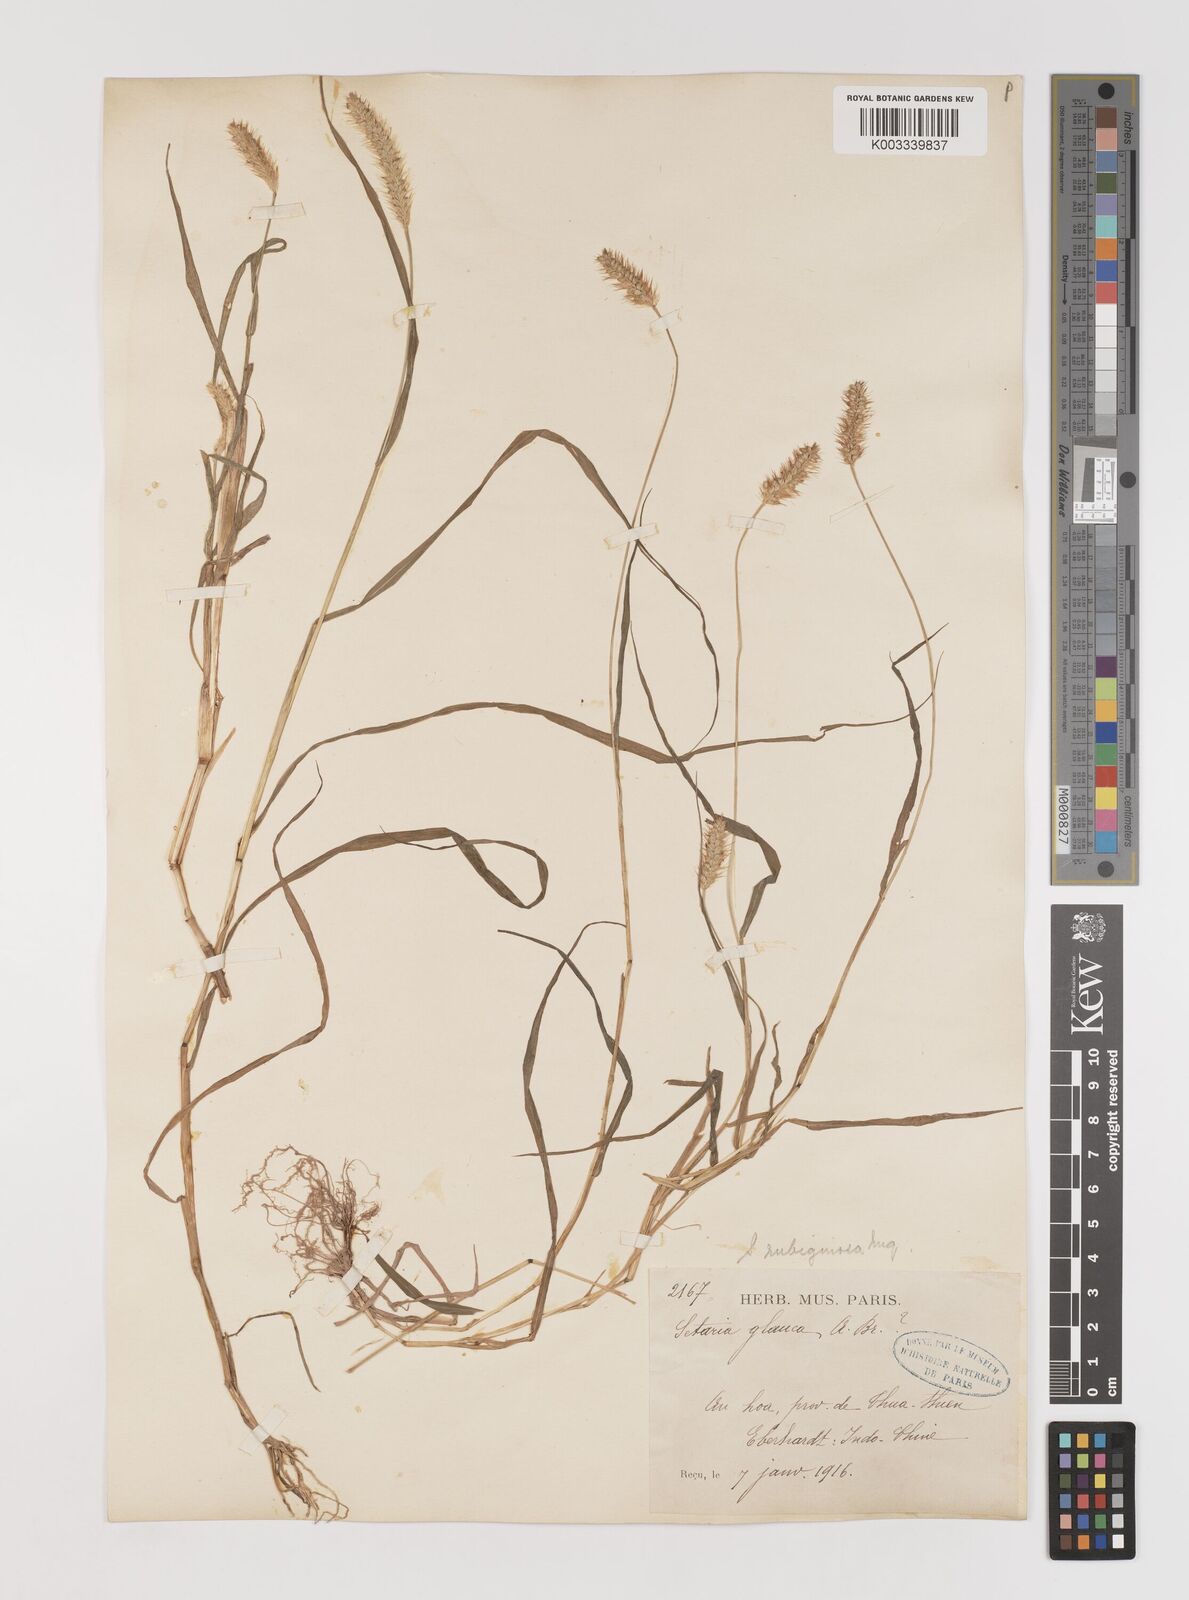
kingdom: Plantae
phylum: Tracheophyta
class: Liliopsida
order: Poales
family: Poaceae
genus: Setaria
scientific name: Setaria pumila
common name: Yellow bristle-grass
